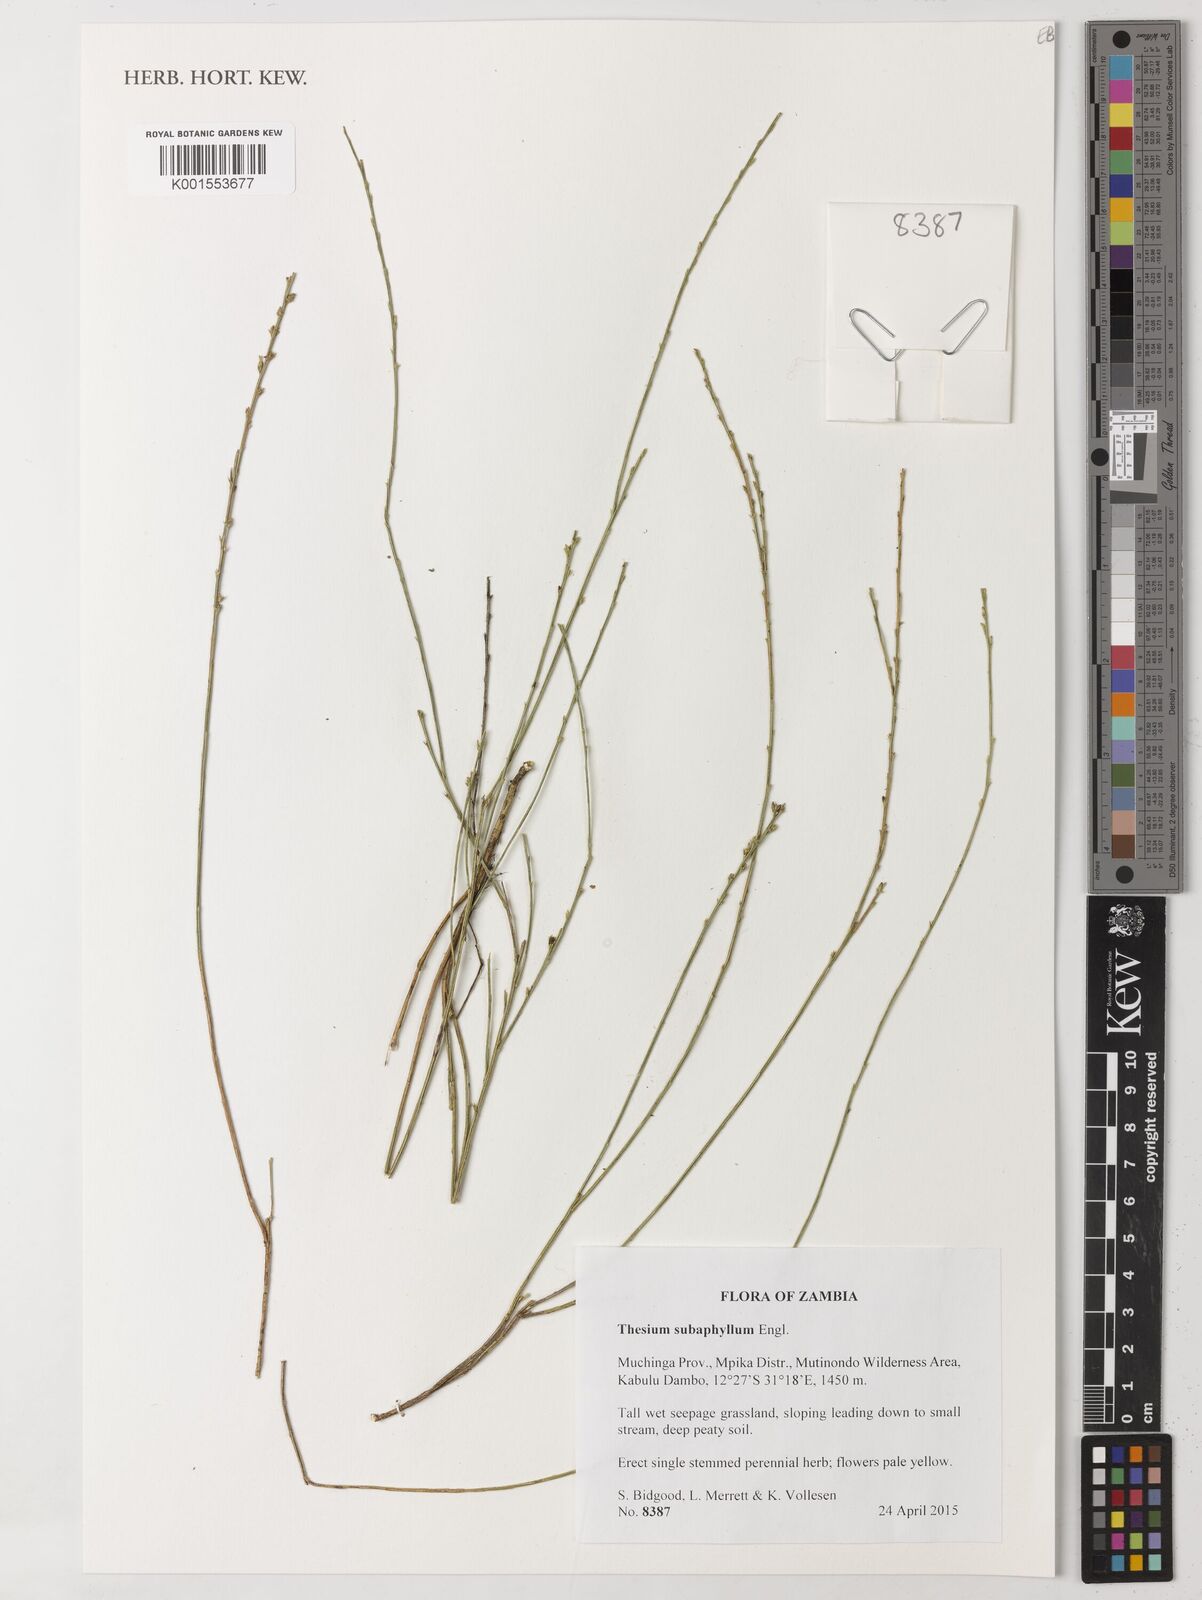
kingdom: Plantae
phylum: Tracheophyta
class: Magnoliopsida
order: Santalales
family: Thesiaceae
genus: Thesium
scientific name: Thesium subaphyllum
